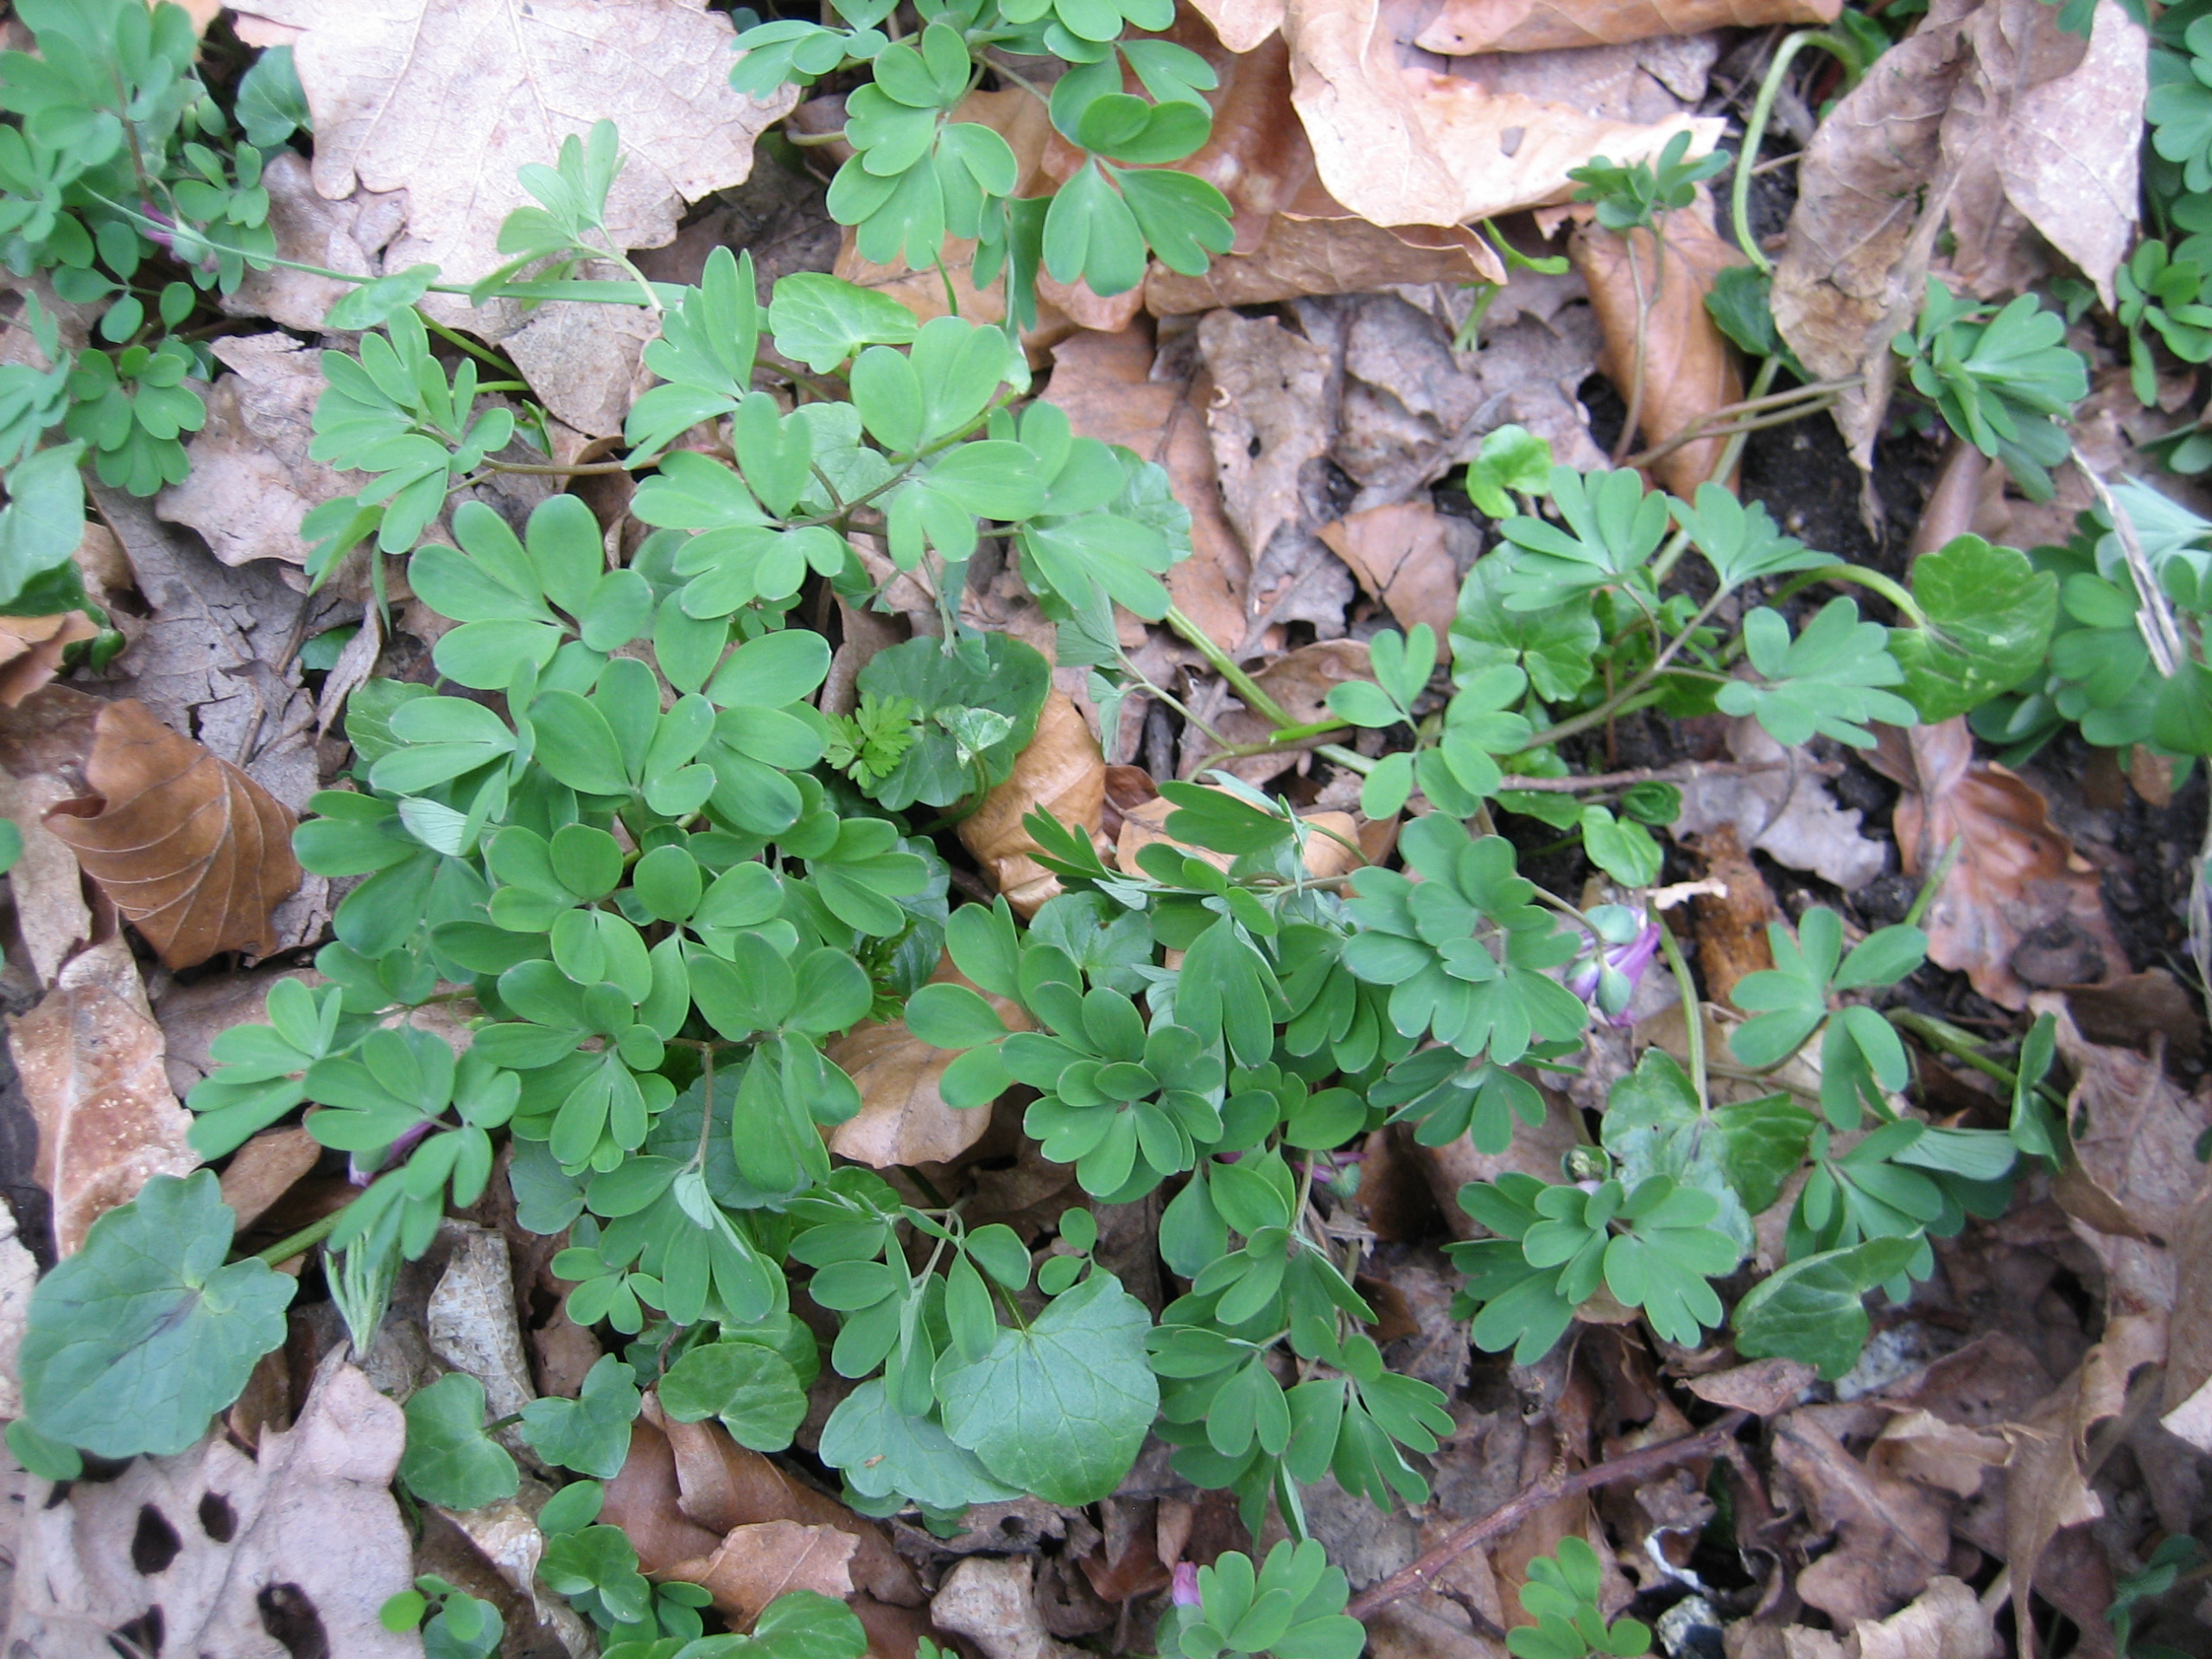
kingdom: Plantae
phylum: Tracheophyta
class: Magnoliopsida
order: Ranunculales
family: Papaveraceae
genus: Corydalis
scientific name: Corydalis intermedia
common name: Liden lærkespore
